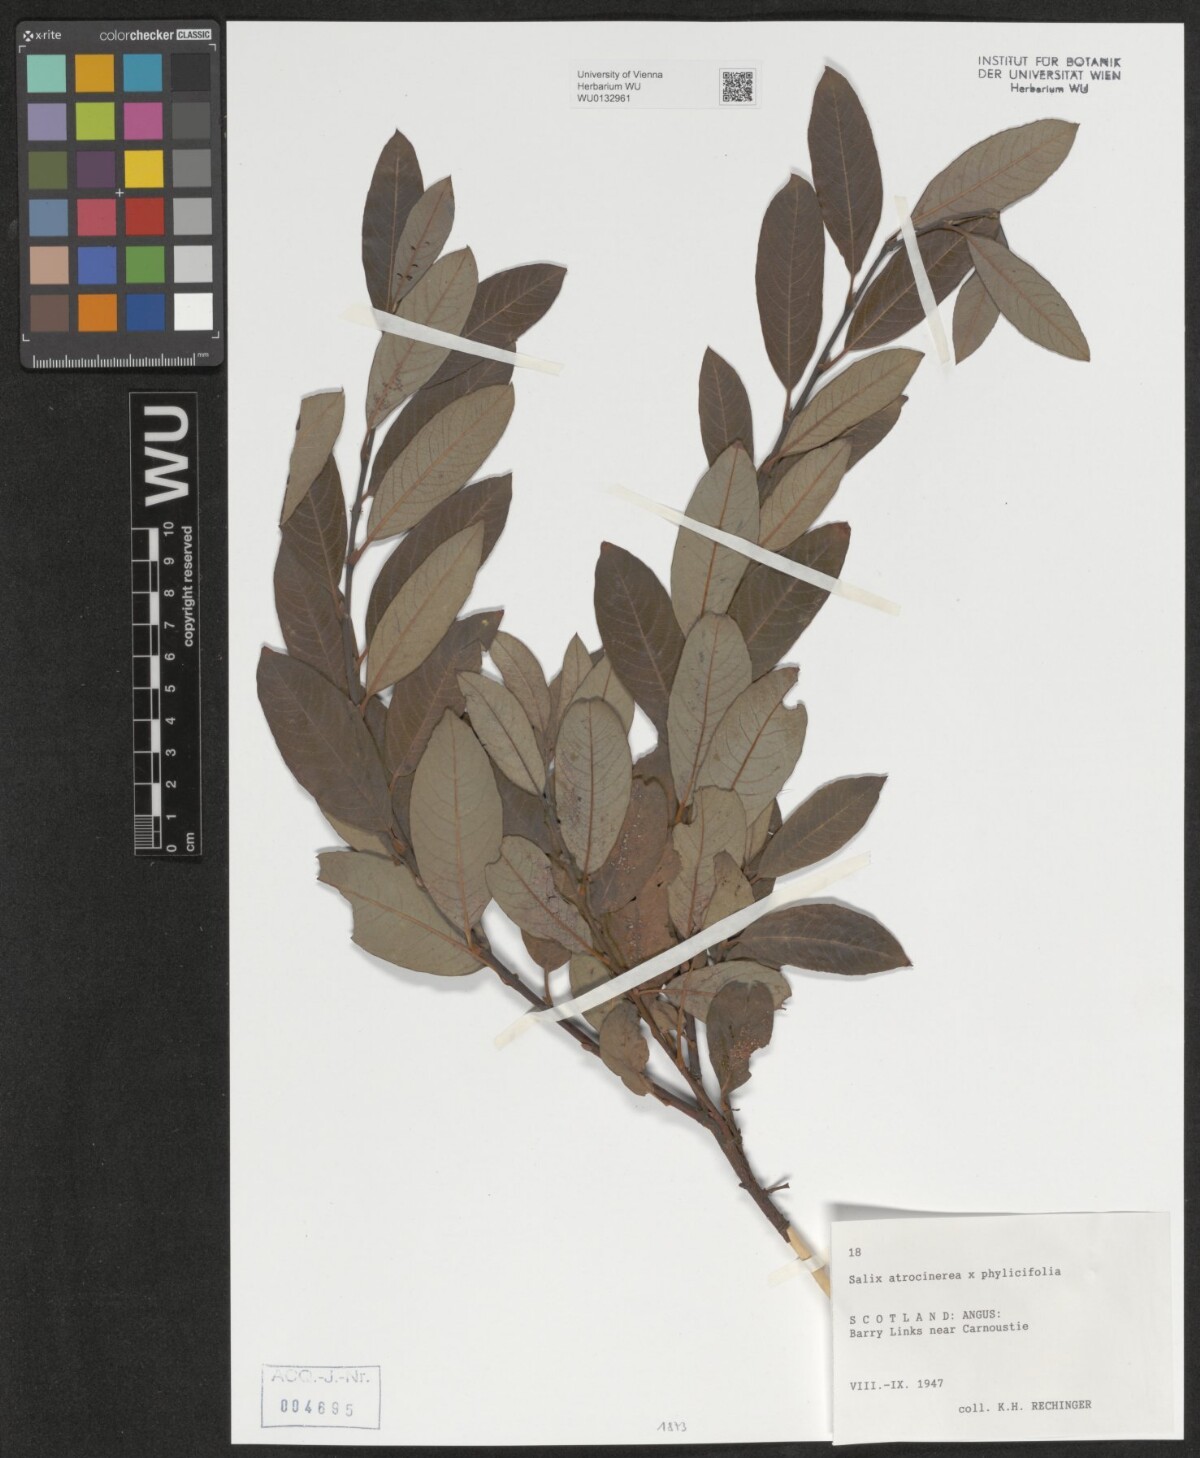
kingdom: Plantae
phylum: Tracheophyta
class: Magnoliopsida
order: Malpighiales
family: Salicaceae
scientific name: Salicaceae
